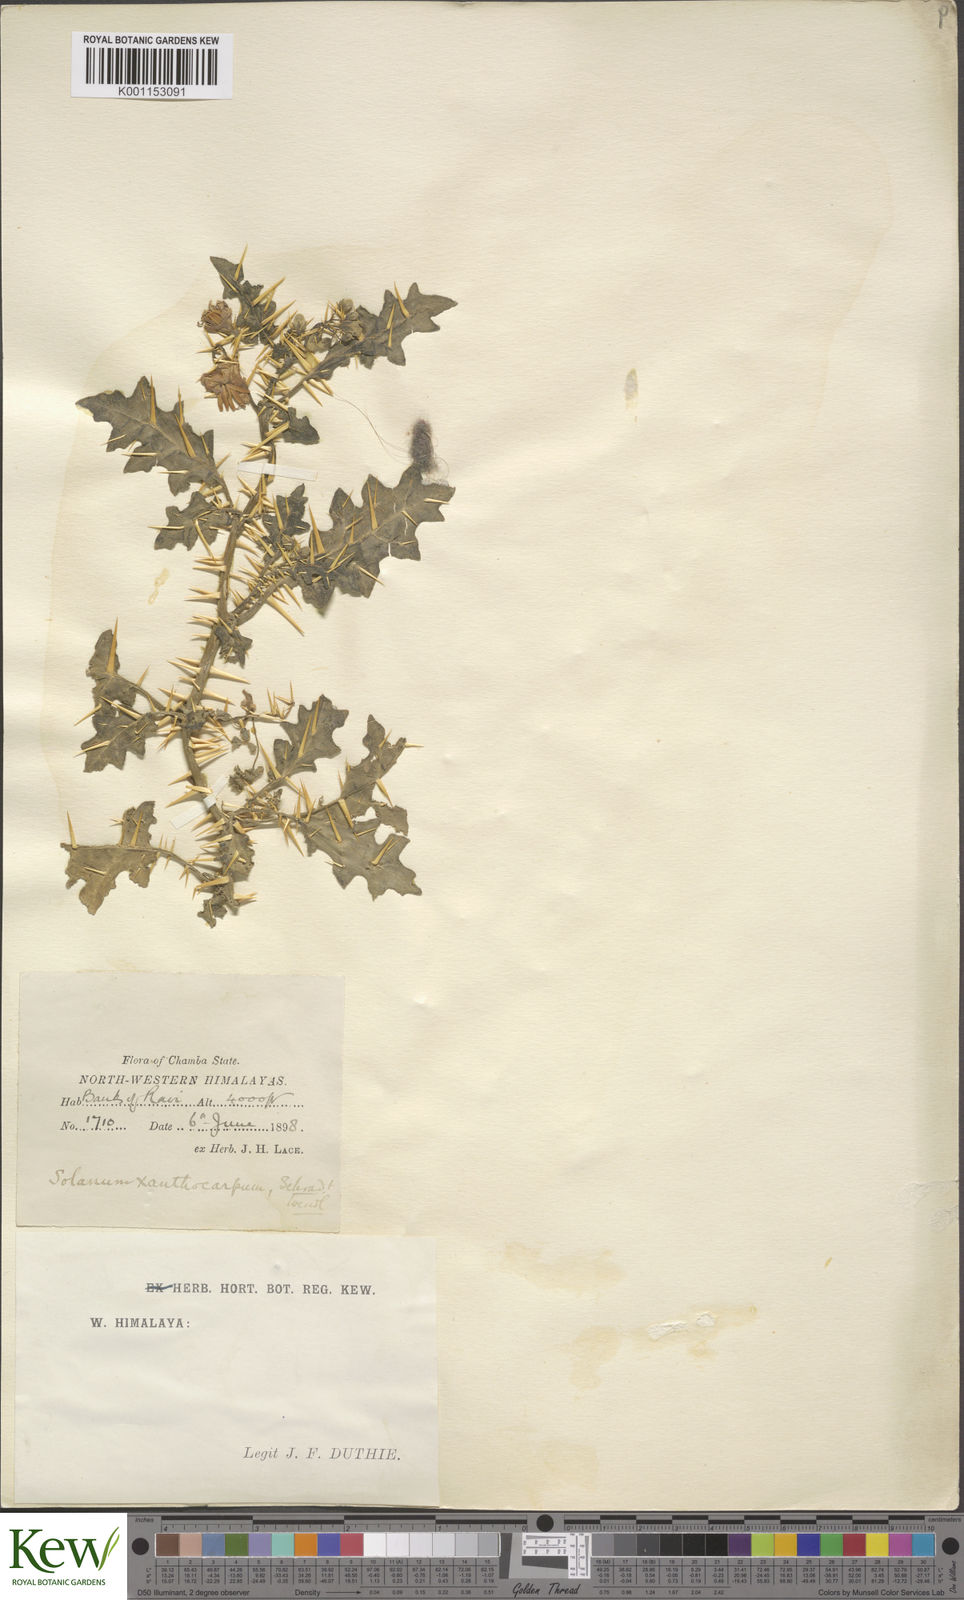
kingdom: Plantae
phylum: Tracheophyta
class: Magnoliopsida
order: Solanales
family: Solanaceae
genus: Solanum
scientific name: Solanum virginianum
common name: Surattense nightshade
